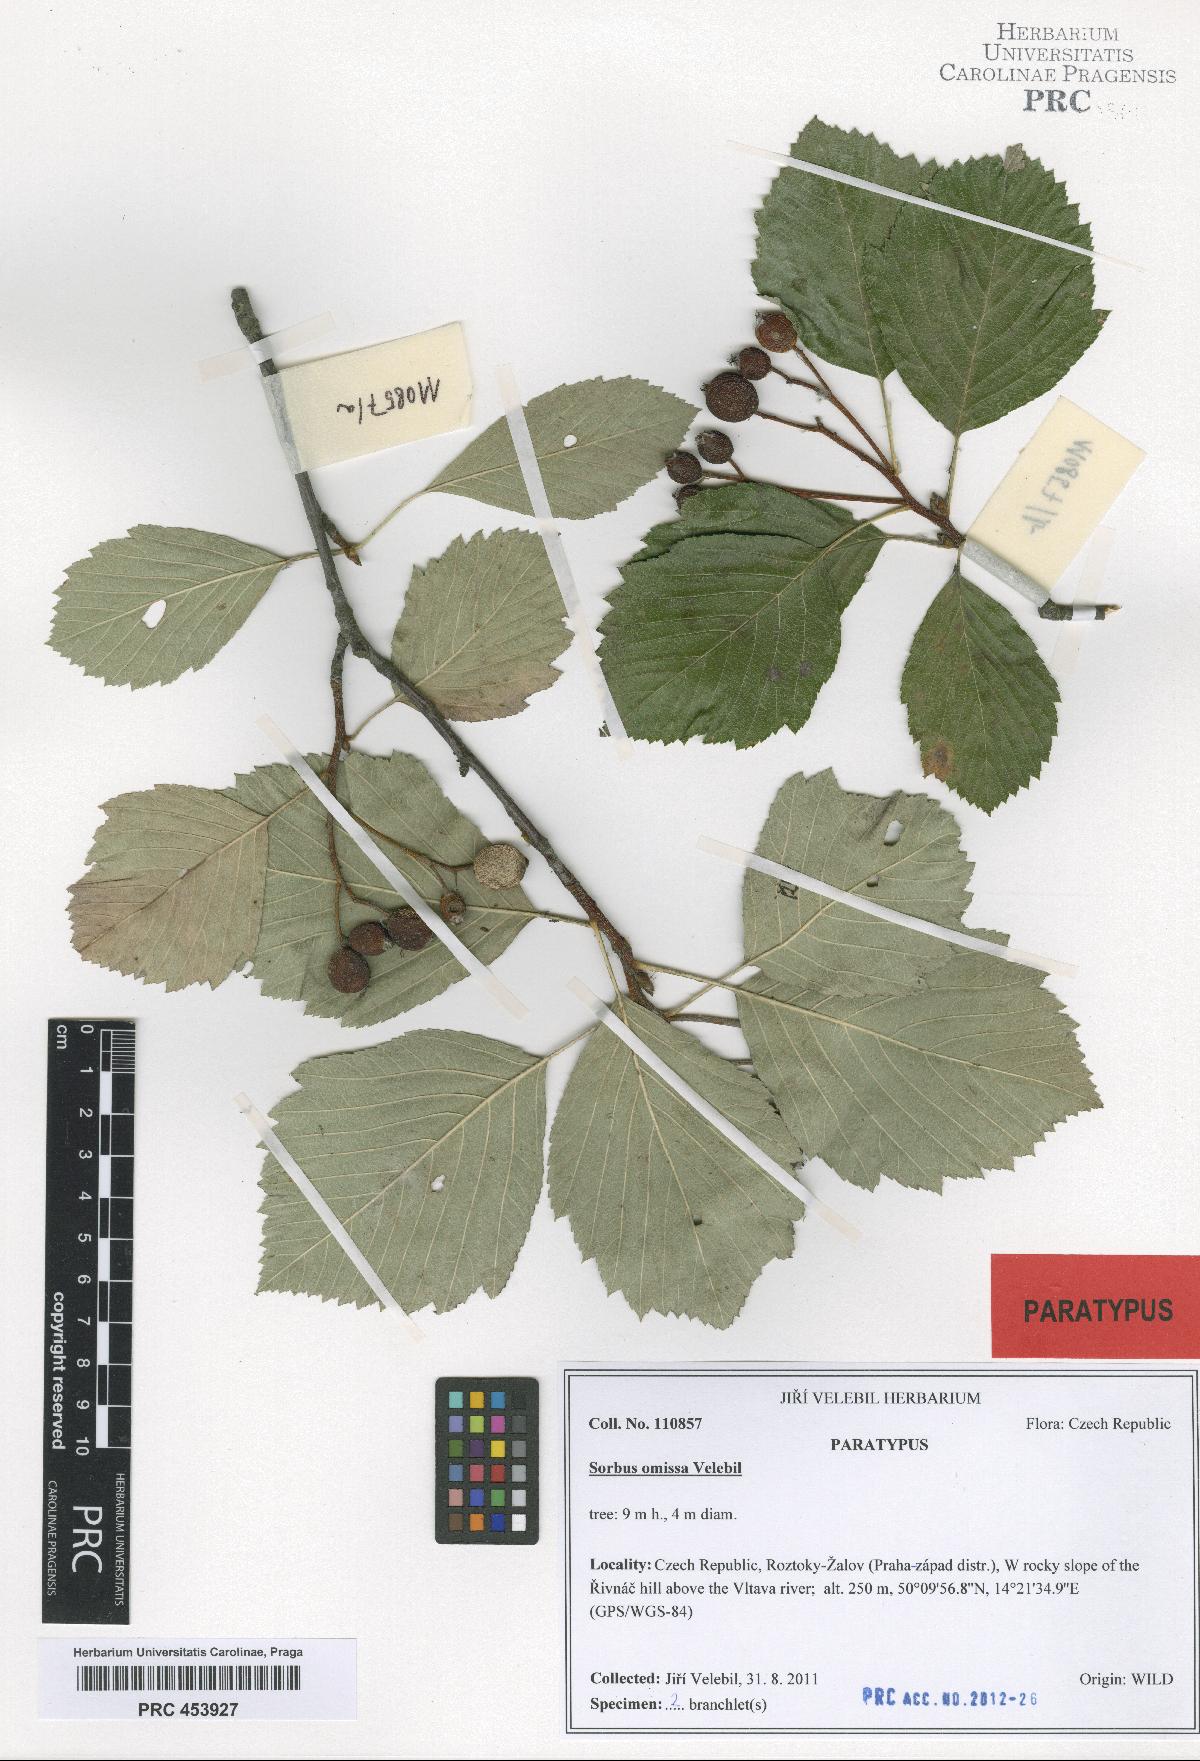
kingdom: Plantae
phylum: Tracheophyta
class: Magnoliopsida
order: Rosales
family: Rosaceae
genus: Karpatiosorbus
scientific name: Karpatiosorbus omissa
